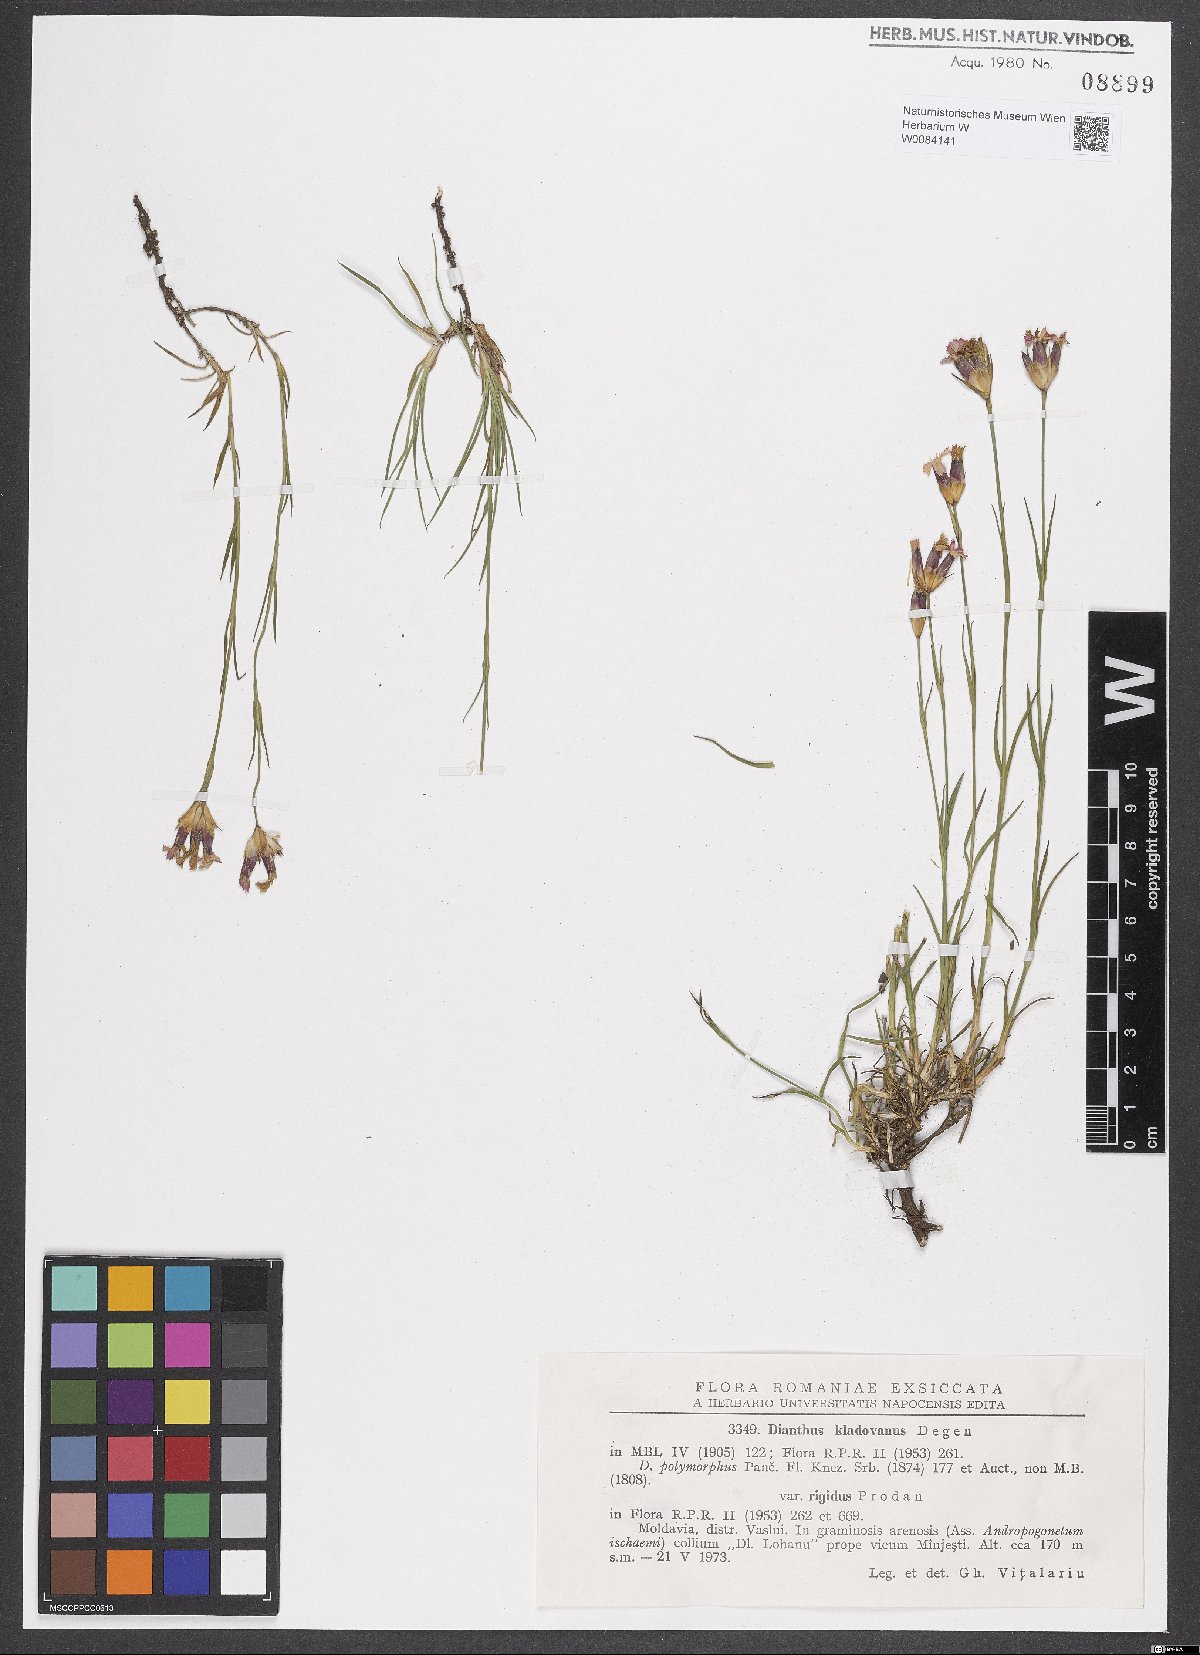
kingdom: Plantae
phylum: Tracheophyta
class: Magnoliopsida
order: Caryophyllales
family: Caryophyllaceae
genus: Dianthus
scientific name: Dianthus giganteiformis
